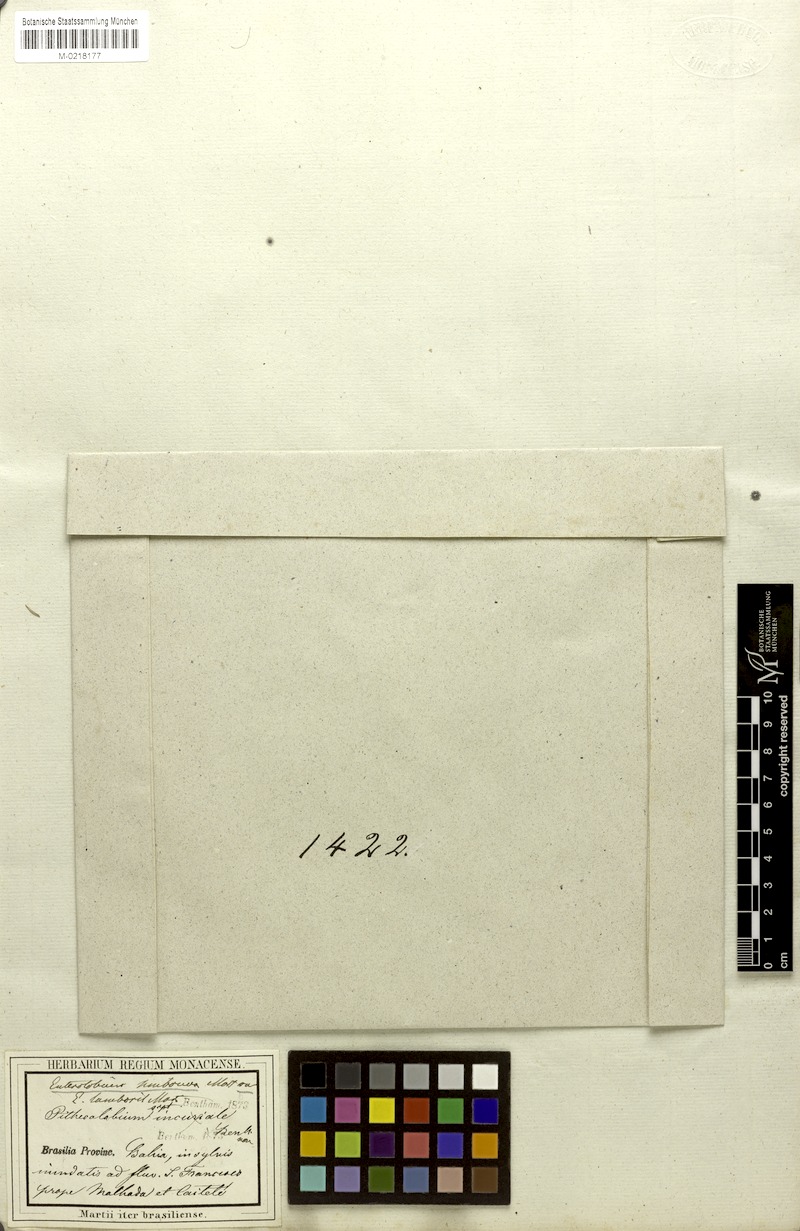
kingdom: Plantae
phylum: Tracheophyta
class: Magnoliopsida
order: Fabales
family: Fabaceae
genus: Enterolobium
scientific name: Enterolobium contortisiliquum
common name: Pacara earpod tree
